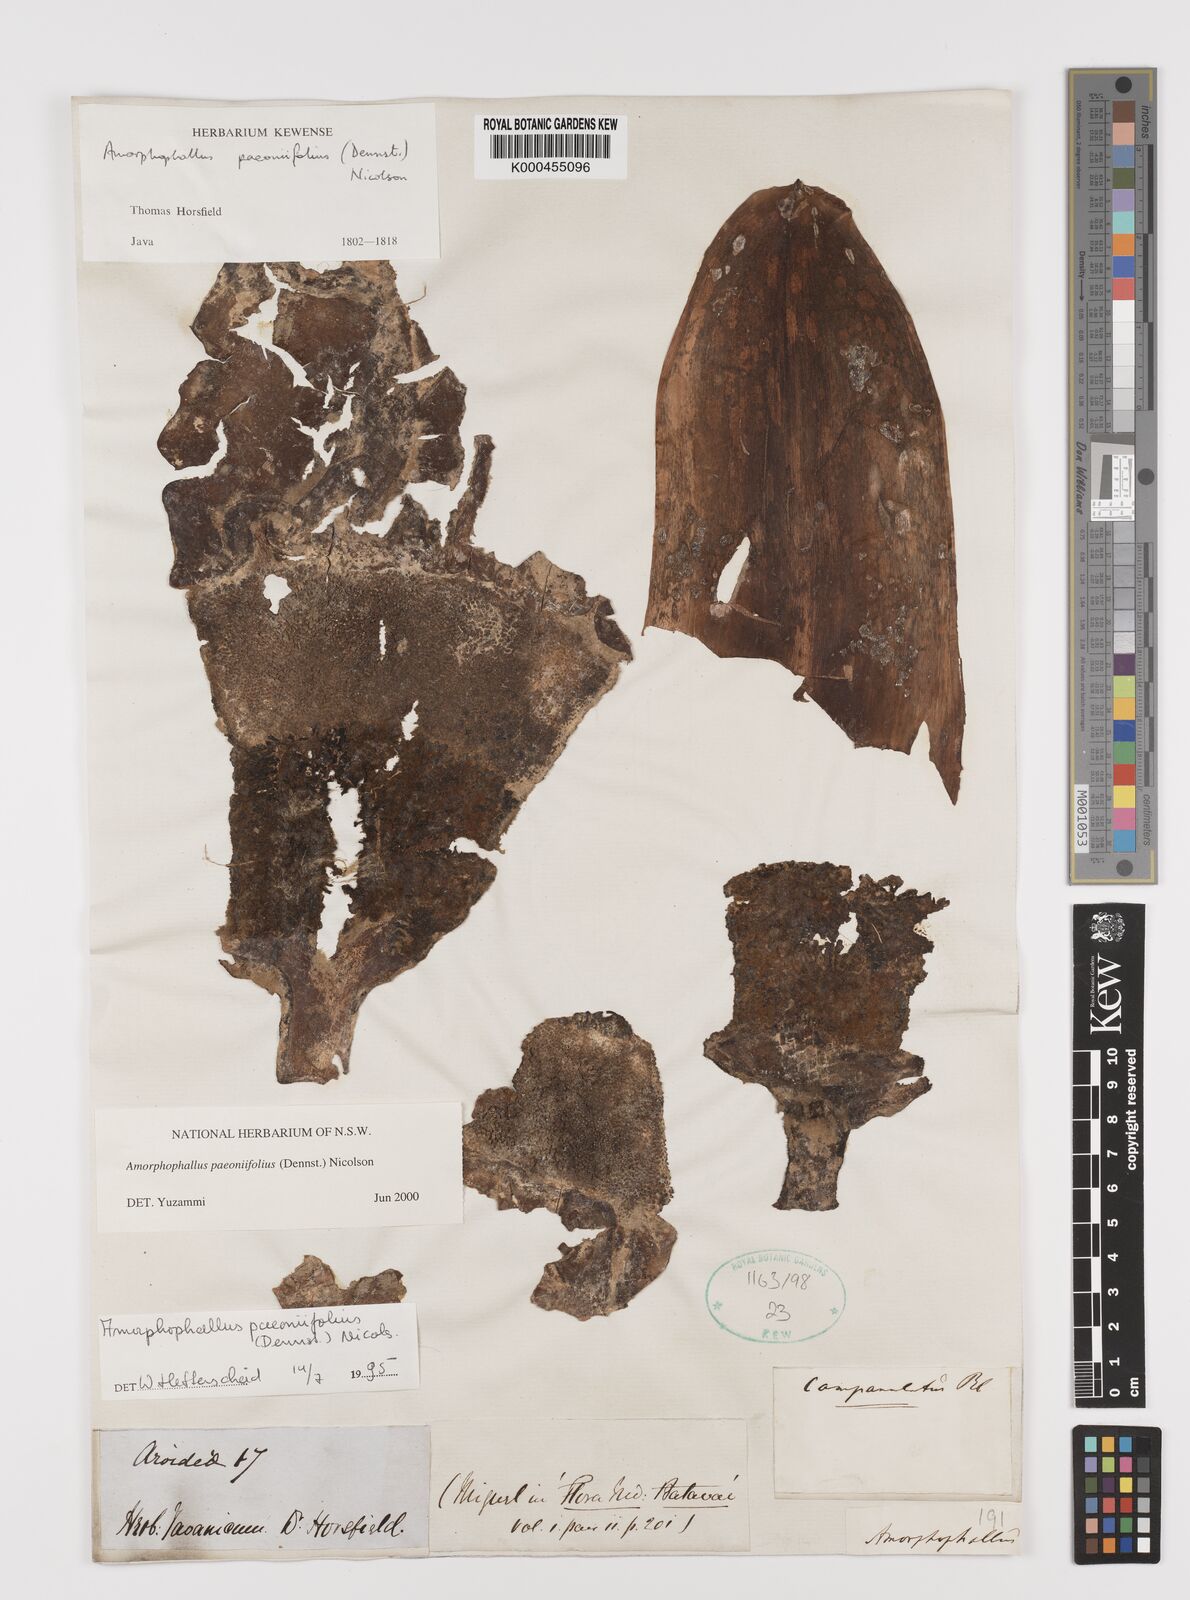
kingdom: Plantae
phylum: Tracheophyta
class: Liliopsida
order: Alismatales
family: Araceae
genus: Amorphophallus
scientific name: Amorphophallus paeoniifolius
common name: Telinga-potato
